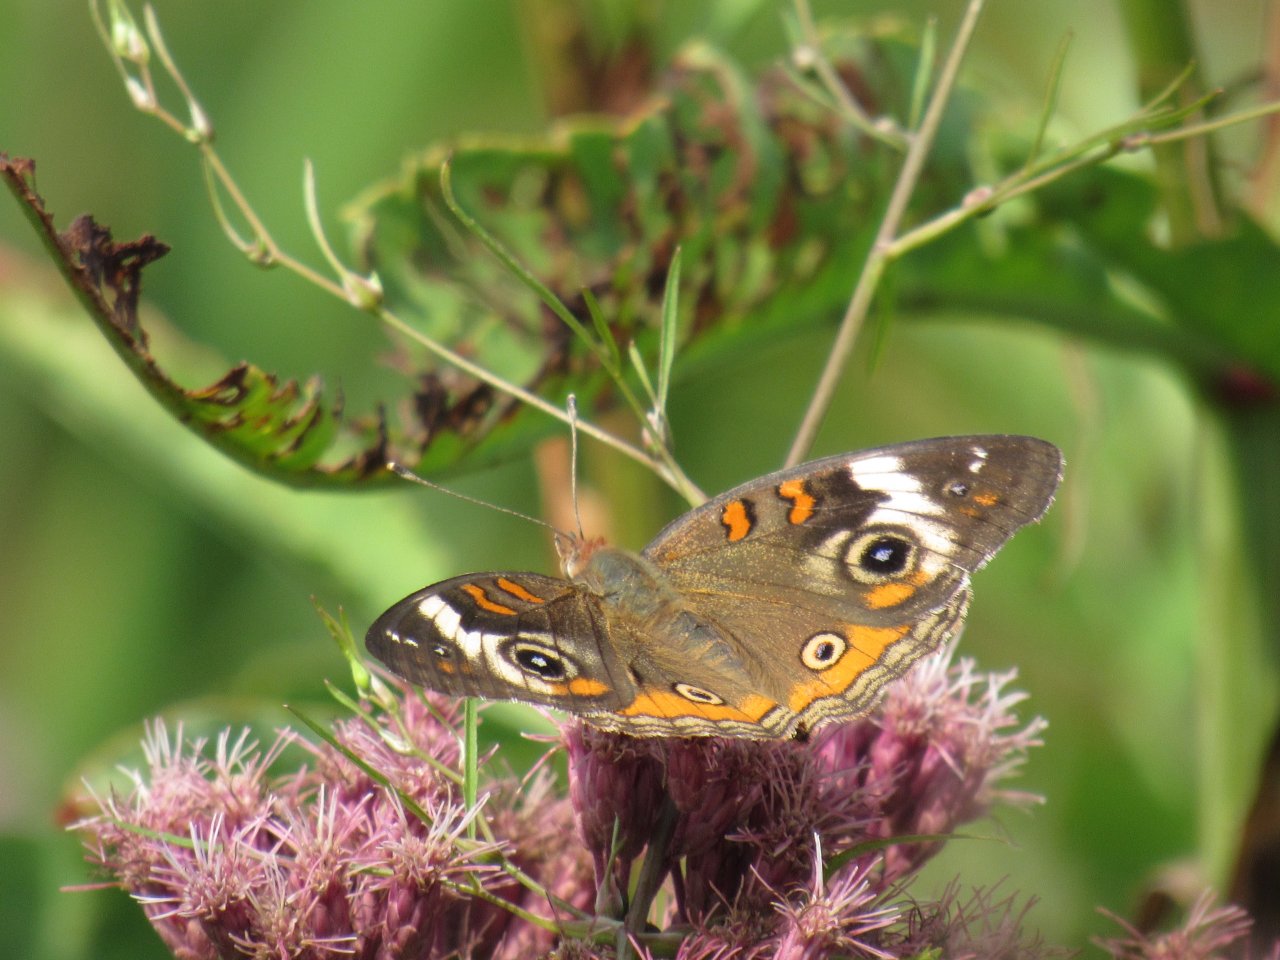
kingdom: Animalia
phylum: Arthropoda
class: Insecta
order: Lepidoptera
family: Nymphalidae
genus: Junonia
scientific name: Junonia coenia
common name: Common Buckeye
